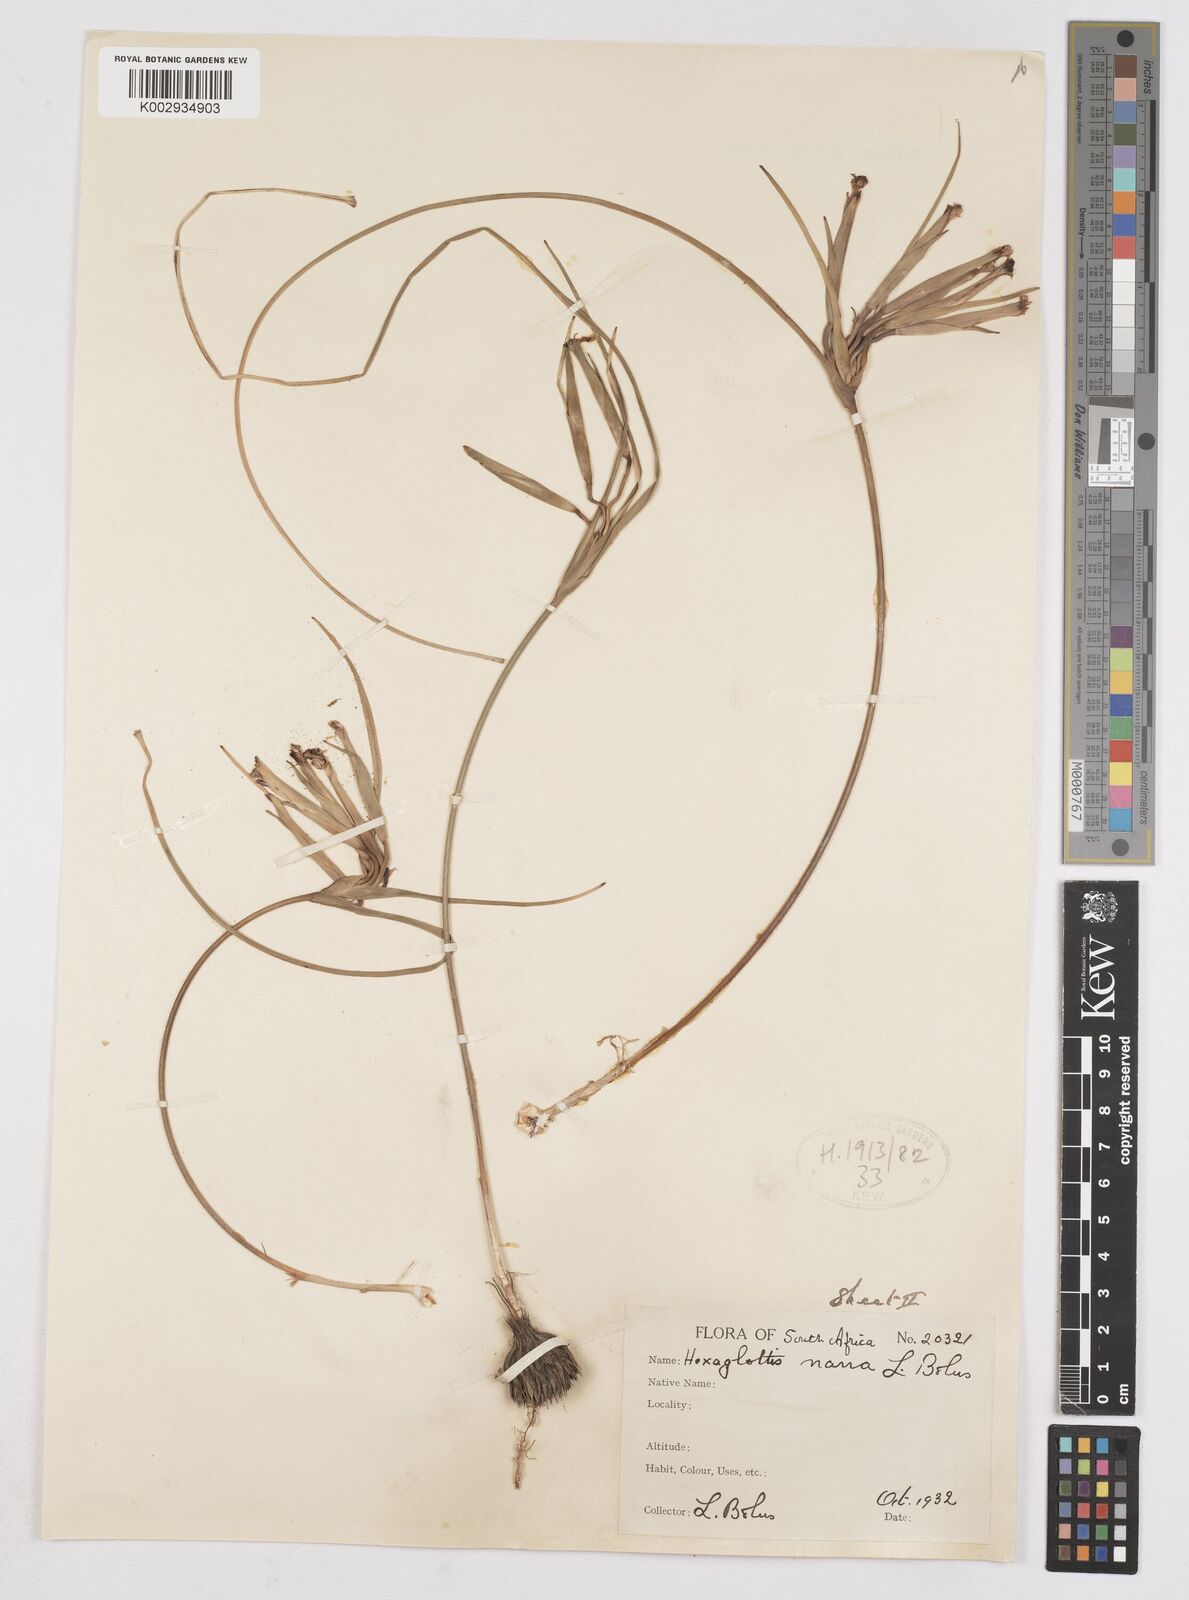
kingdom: Plantae
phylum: Tracheophyta
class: Liliopsida
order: Asparagales
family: Iridaceae
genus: Moraea
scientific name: Moraea nana
